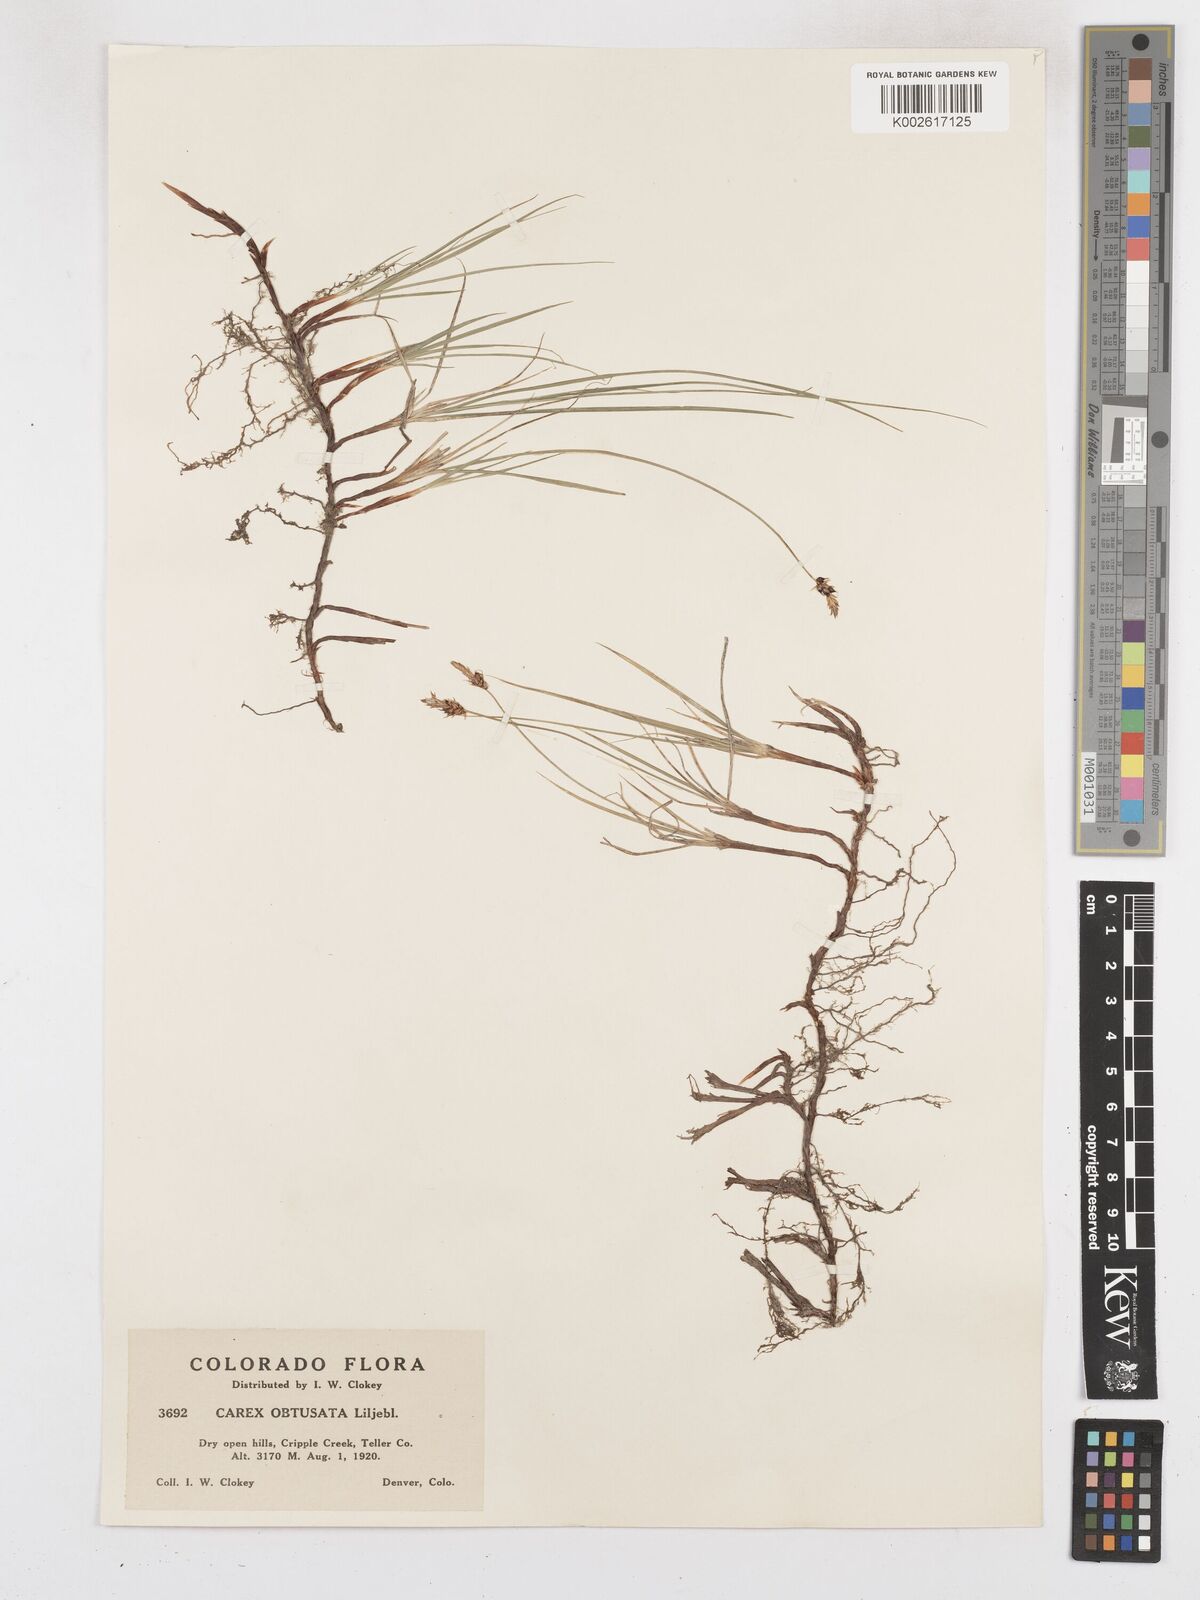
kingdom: Plantae
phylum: Tracheophyta
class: Liliopsida
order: Poales
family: Cyperaceae
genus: Carex
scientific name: Carex obtusata
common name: Blunt sedge
